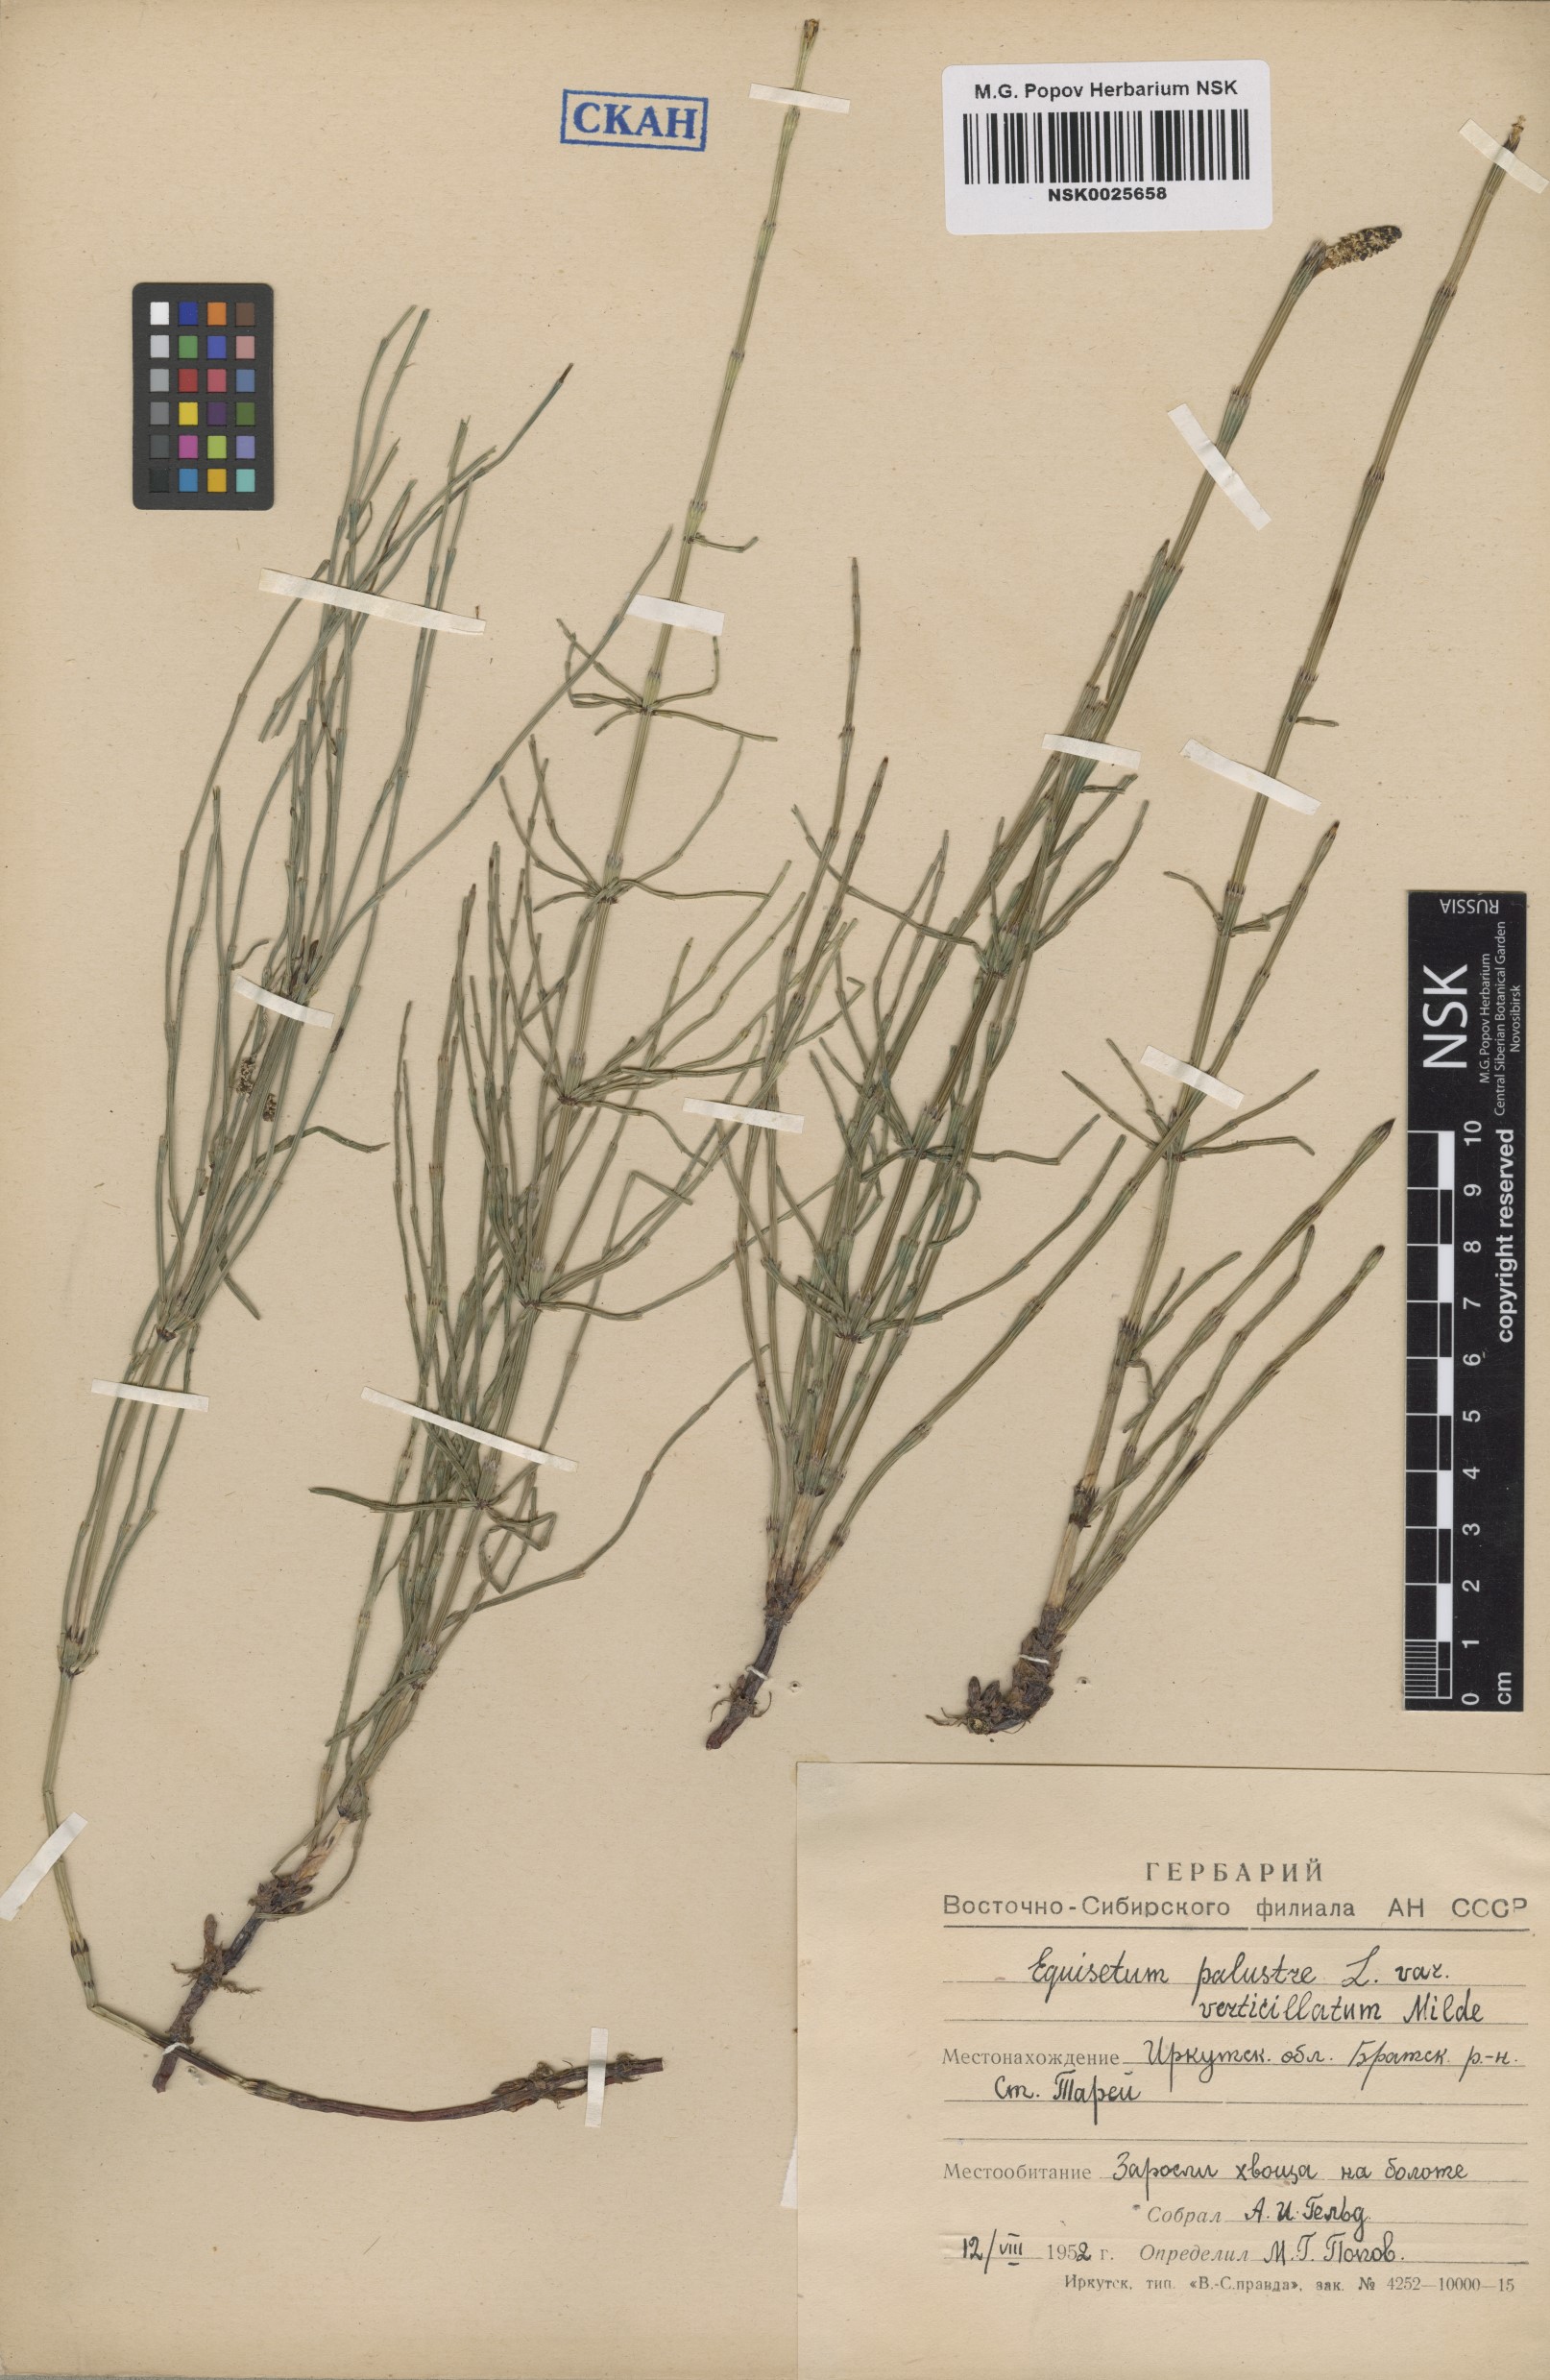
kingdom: Plantae
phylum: Tracheophyta
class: Polypodiopsida
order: Equisetales
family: Equisetaceae
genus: Equisetum
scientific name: Equisetum palustre
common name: Marsh horsetail
